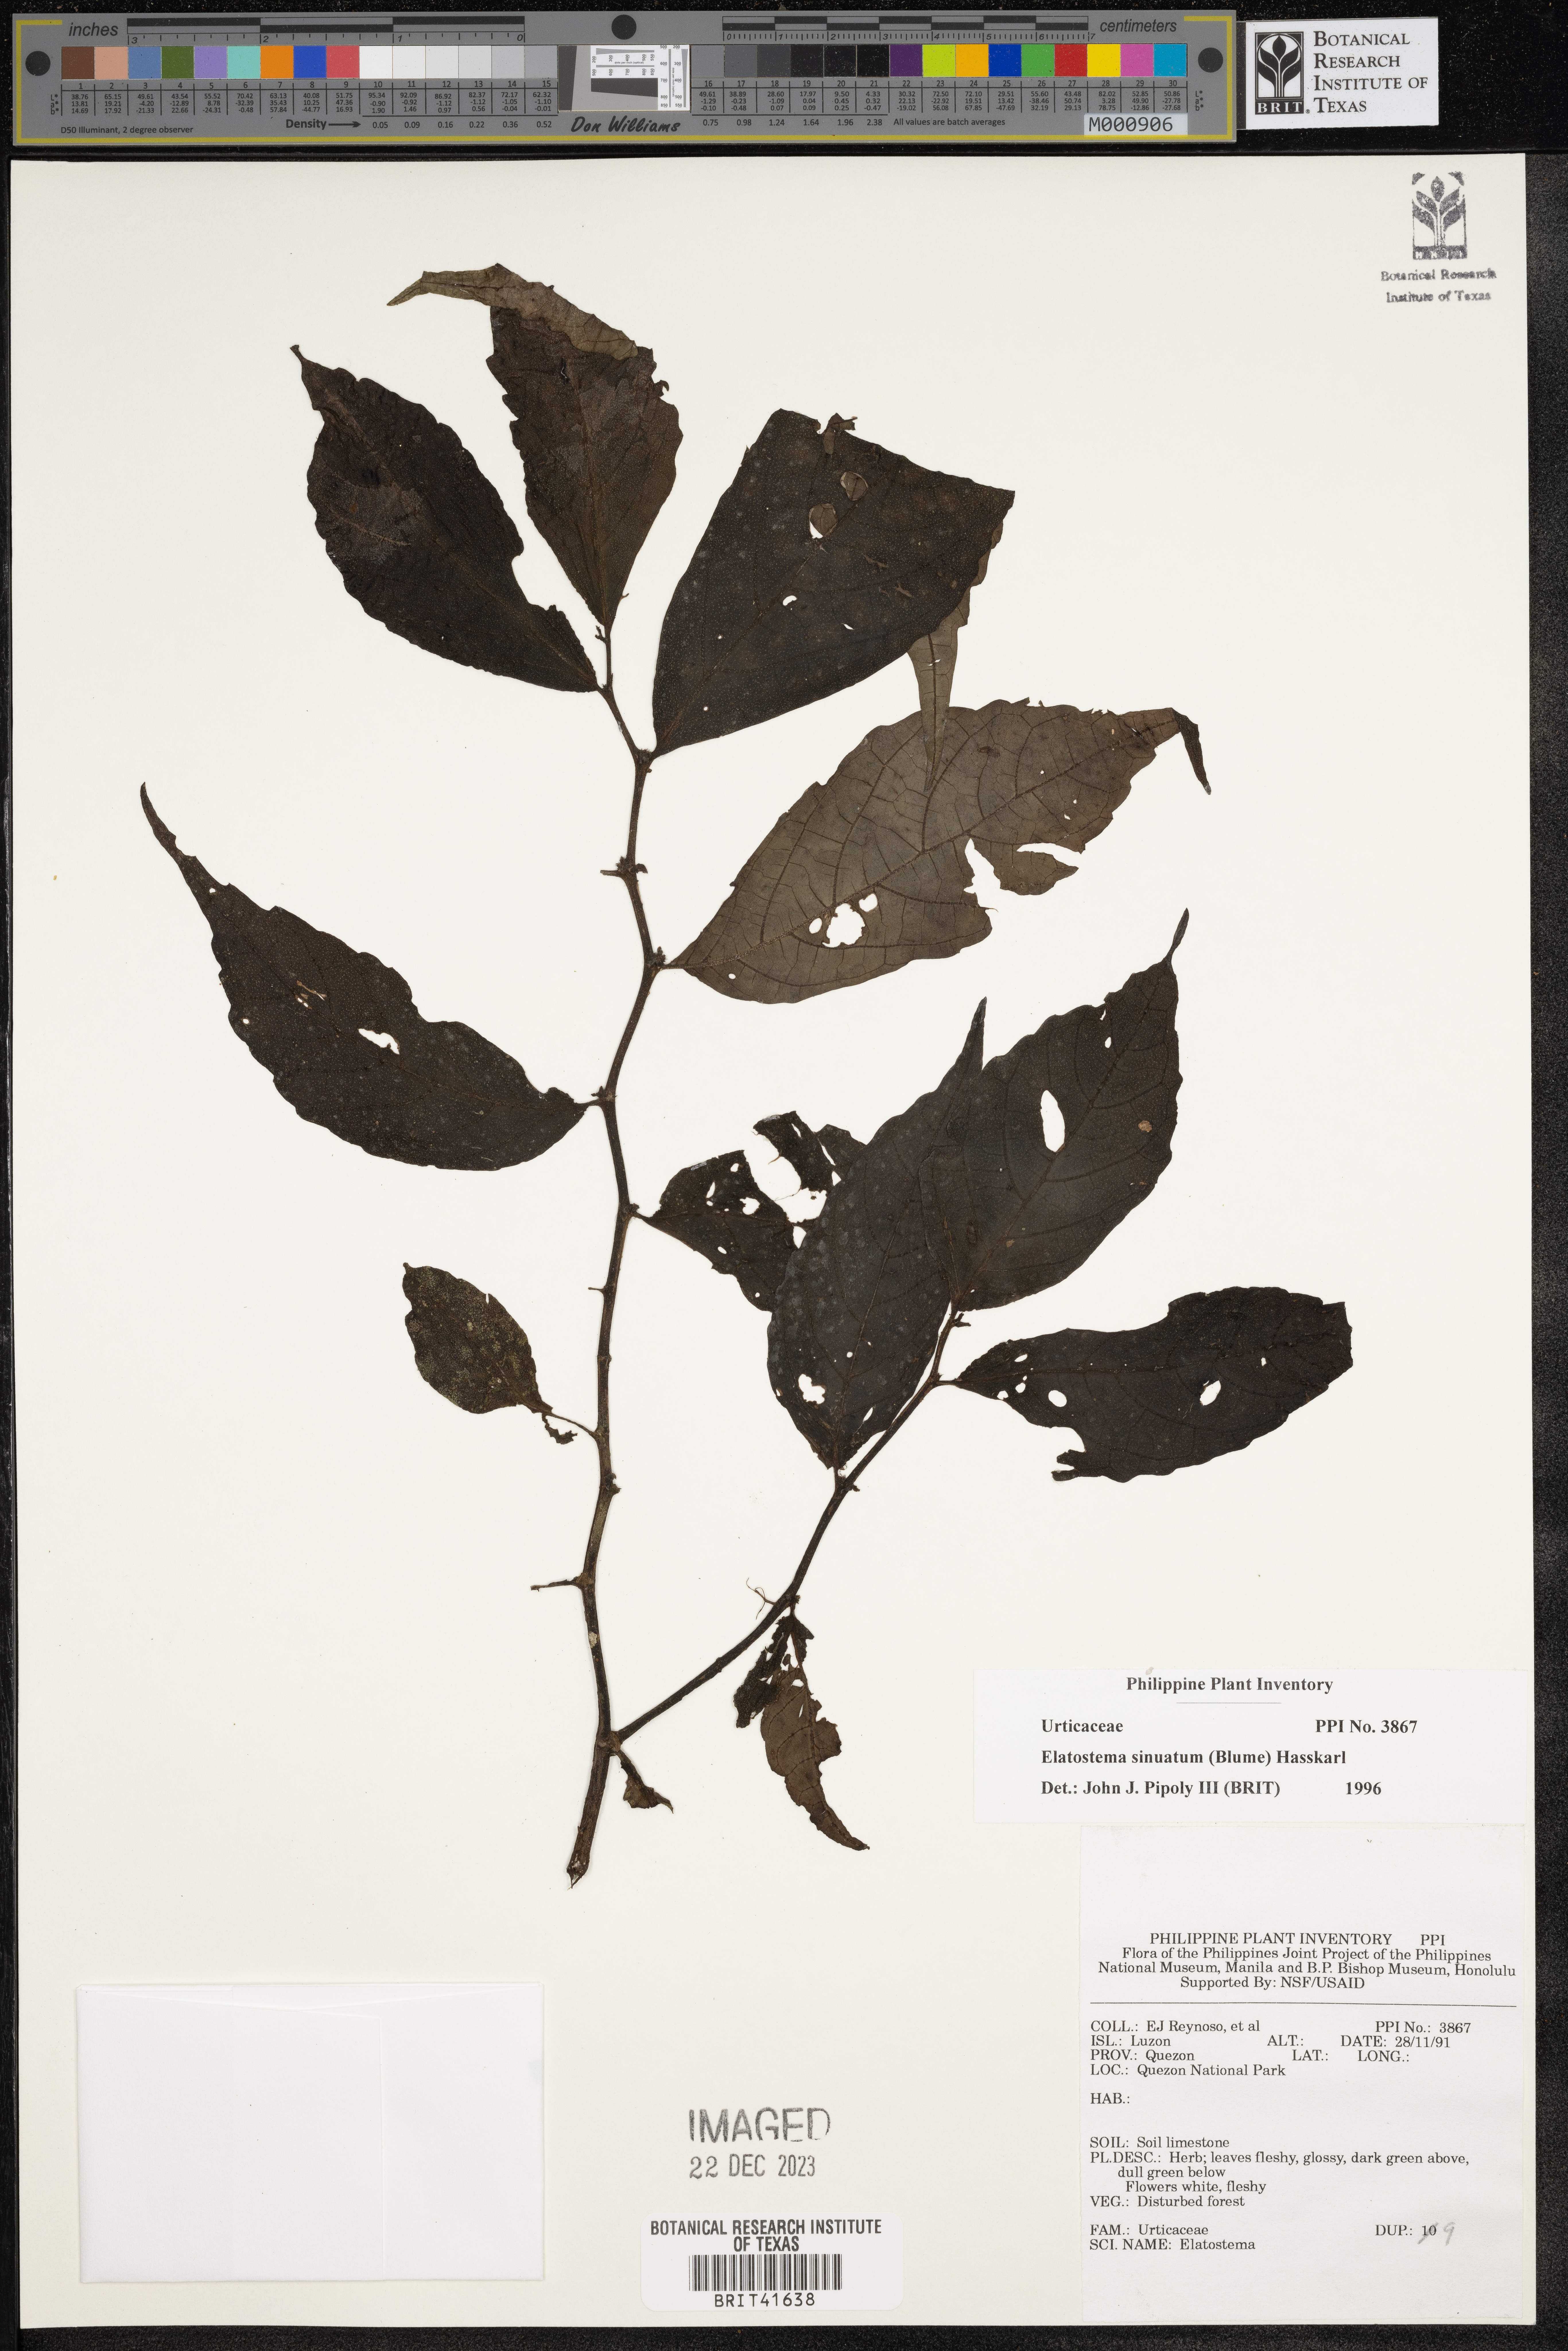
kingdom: Plantae
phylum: Tracheophyta
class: Magnoliopsida
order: Rosales
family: Urticaceae
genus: Elatostema
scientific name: Elatostema sinuatum
